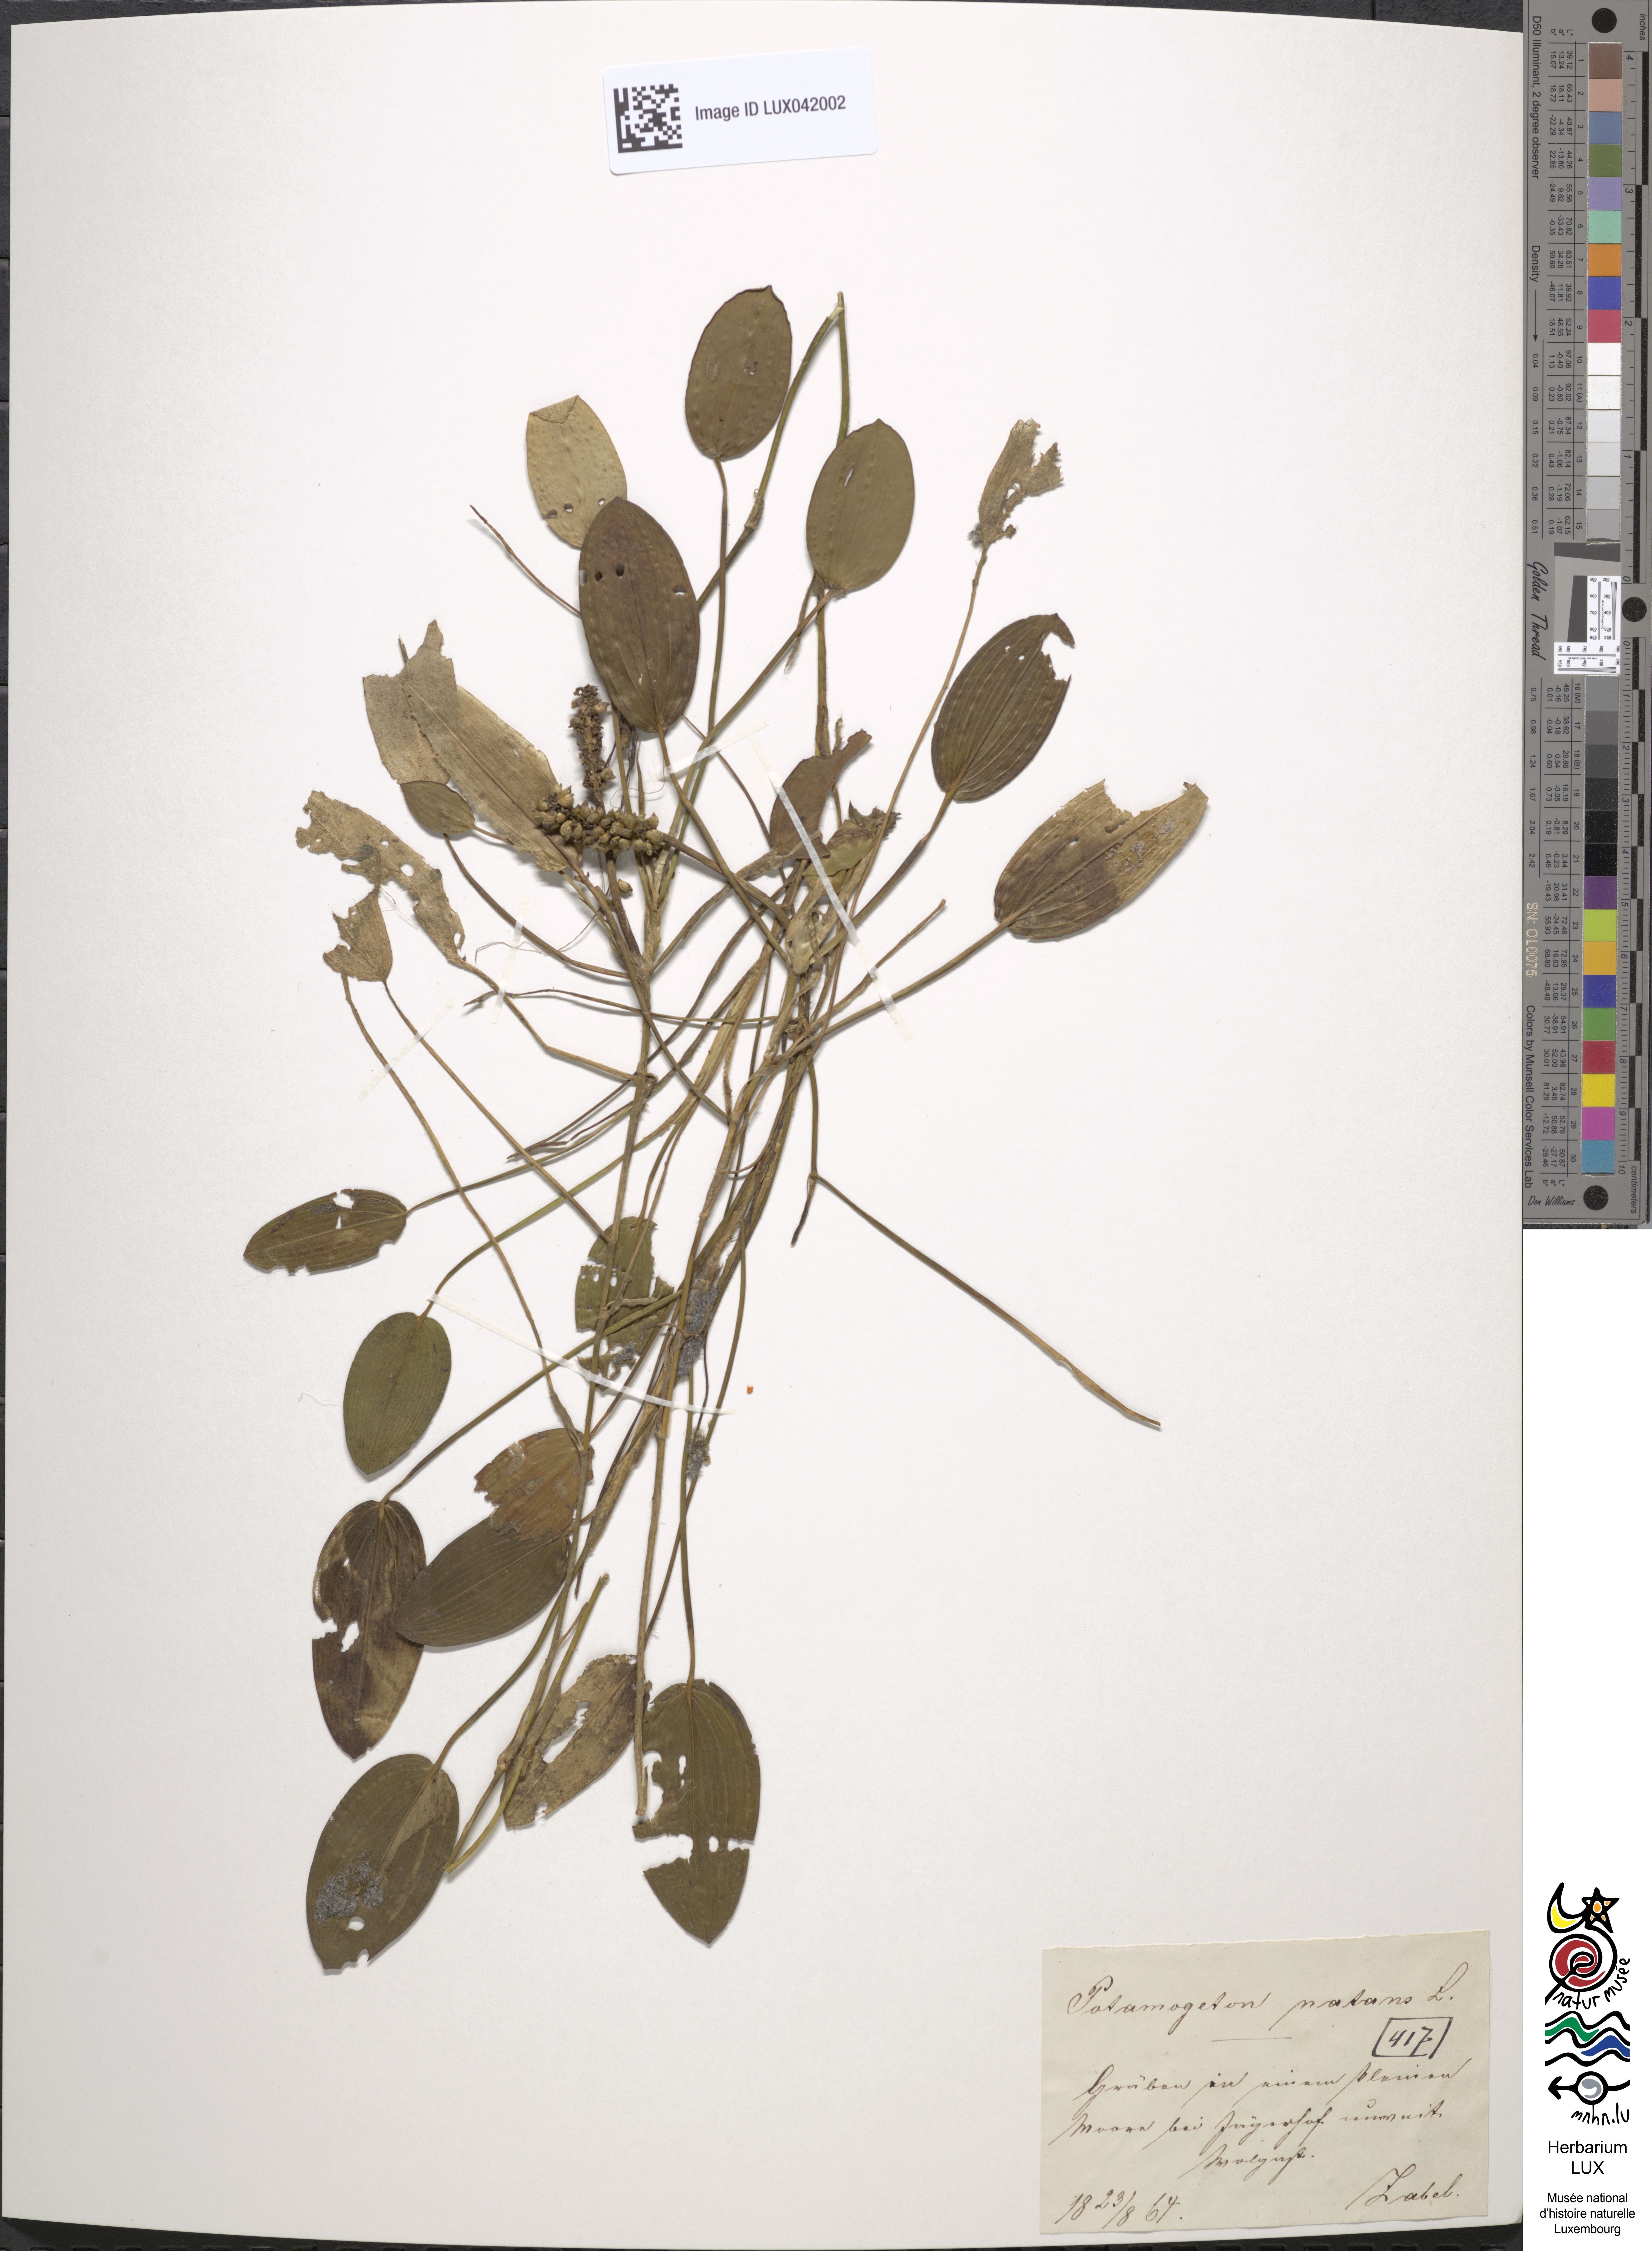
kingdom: Plantae
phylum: Tracheophyta
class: Liliopsida
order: Alismatales
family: Potamogetonaceae
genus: Potamogeton
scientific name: Potamogeton natans
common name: Broad-leaved pondweed
